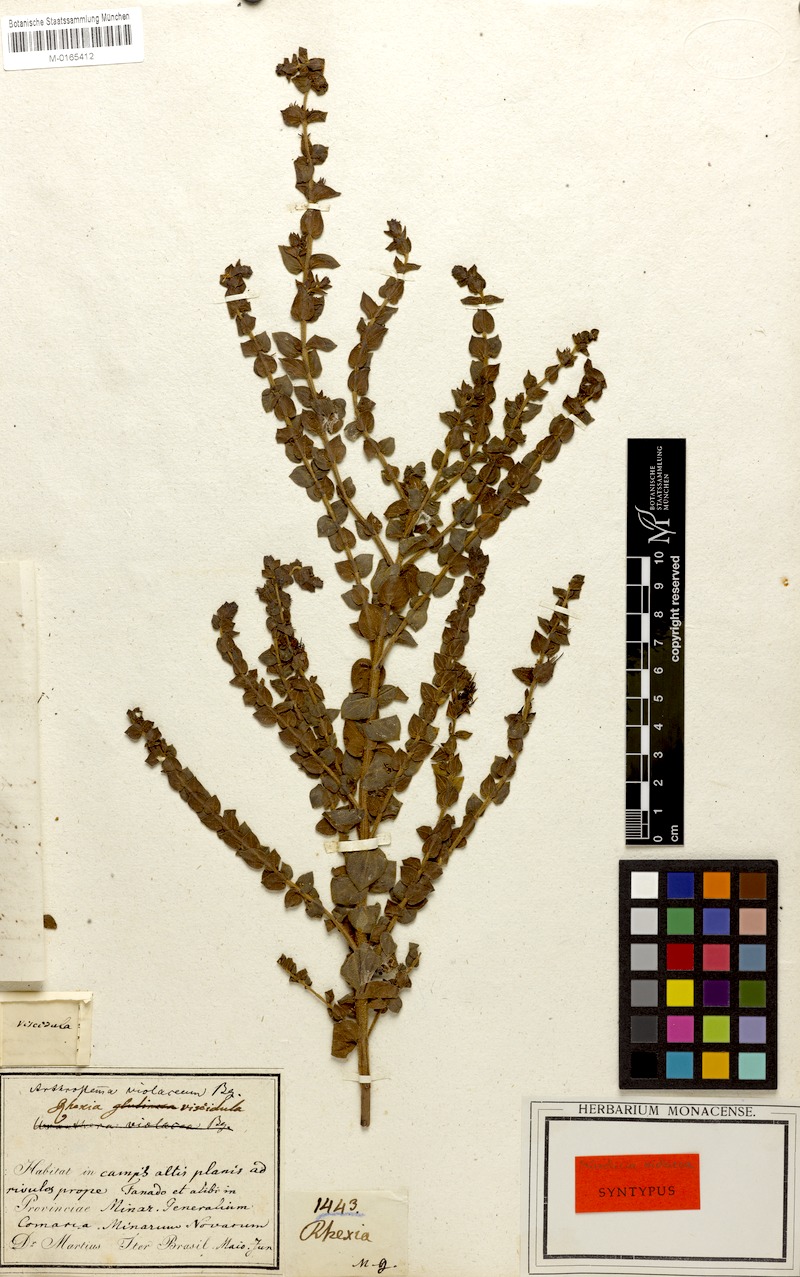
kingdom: Plantae
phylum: Tracheophyta
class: Magnoliopsida
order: Myrtales
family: Melastomataceae
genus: Fritzschia
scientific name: Fritzschia sessilis
